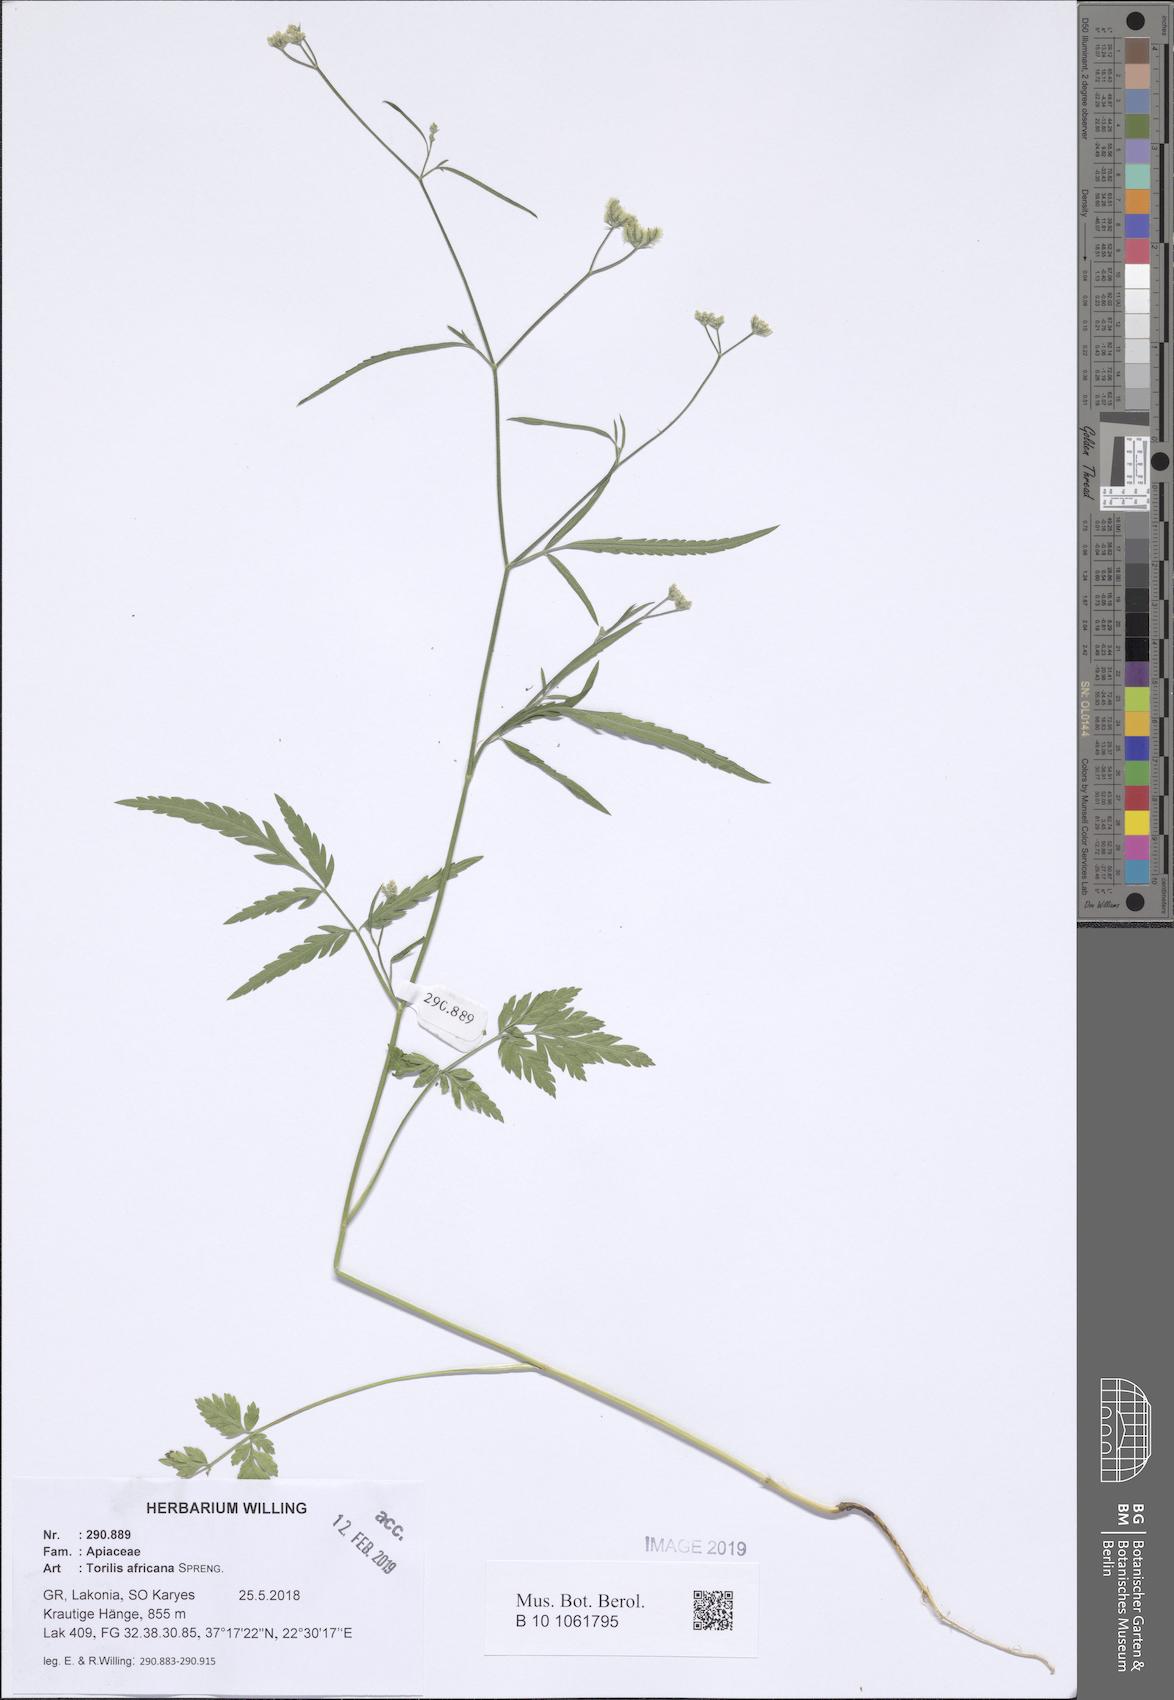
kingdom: Plantae
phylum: Tracheophyta
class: Magnoliopsida
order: Apiales
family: Apiaceae
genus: Torilis
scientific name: Torilis africana
